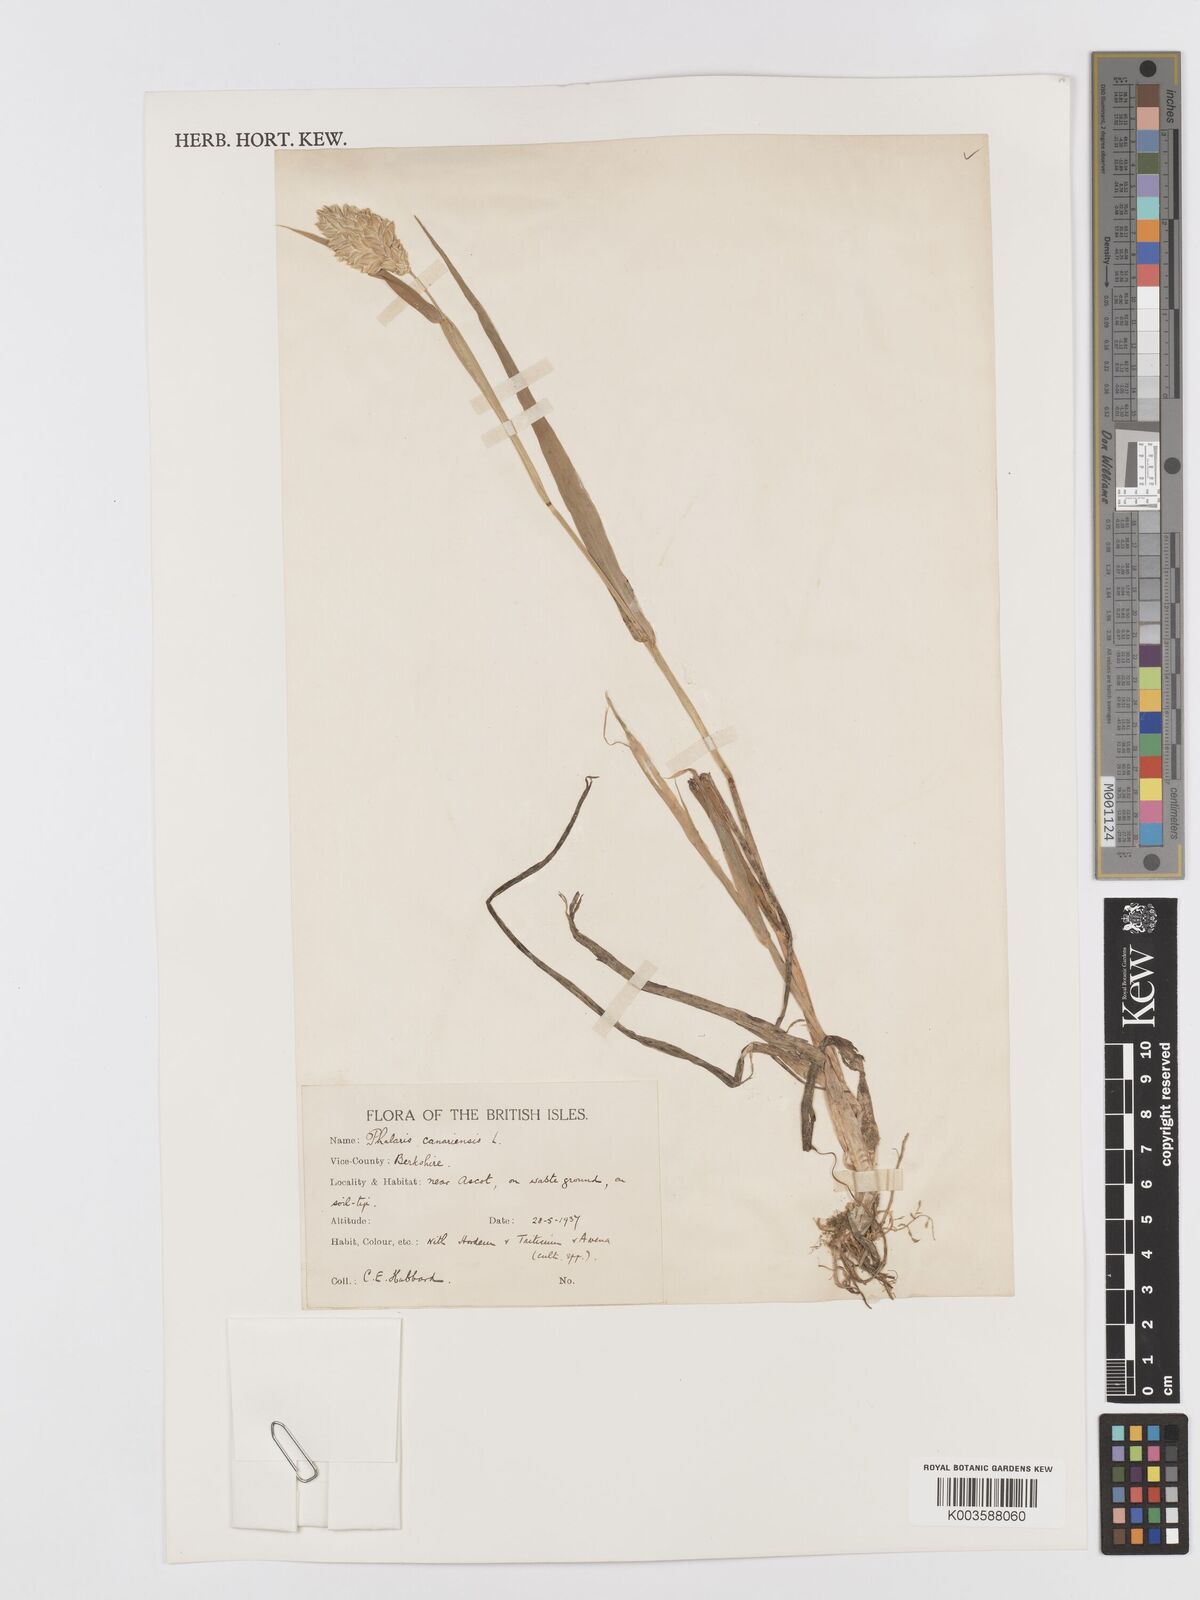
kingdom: Plantae
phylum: Tracheophyta
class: Liliopsida
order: Poales
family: Poaceae
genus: Phalaris
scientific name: Phalaris canariensis
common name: Annual canarygrass
